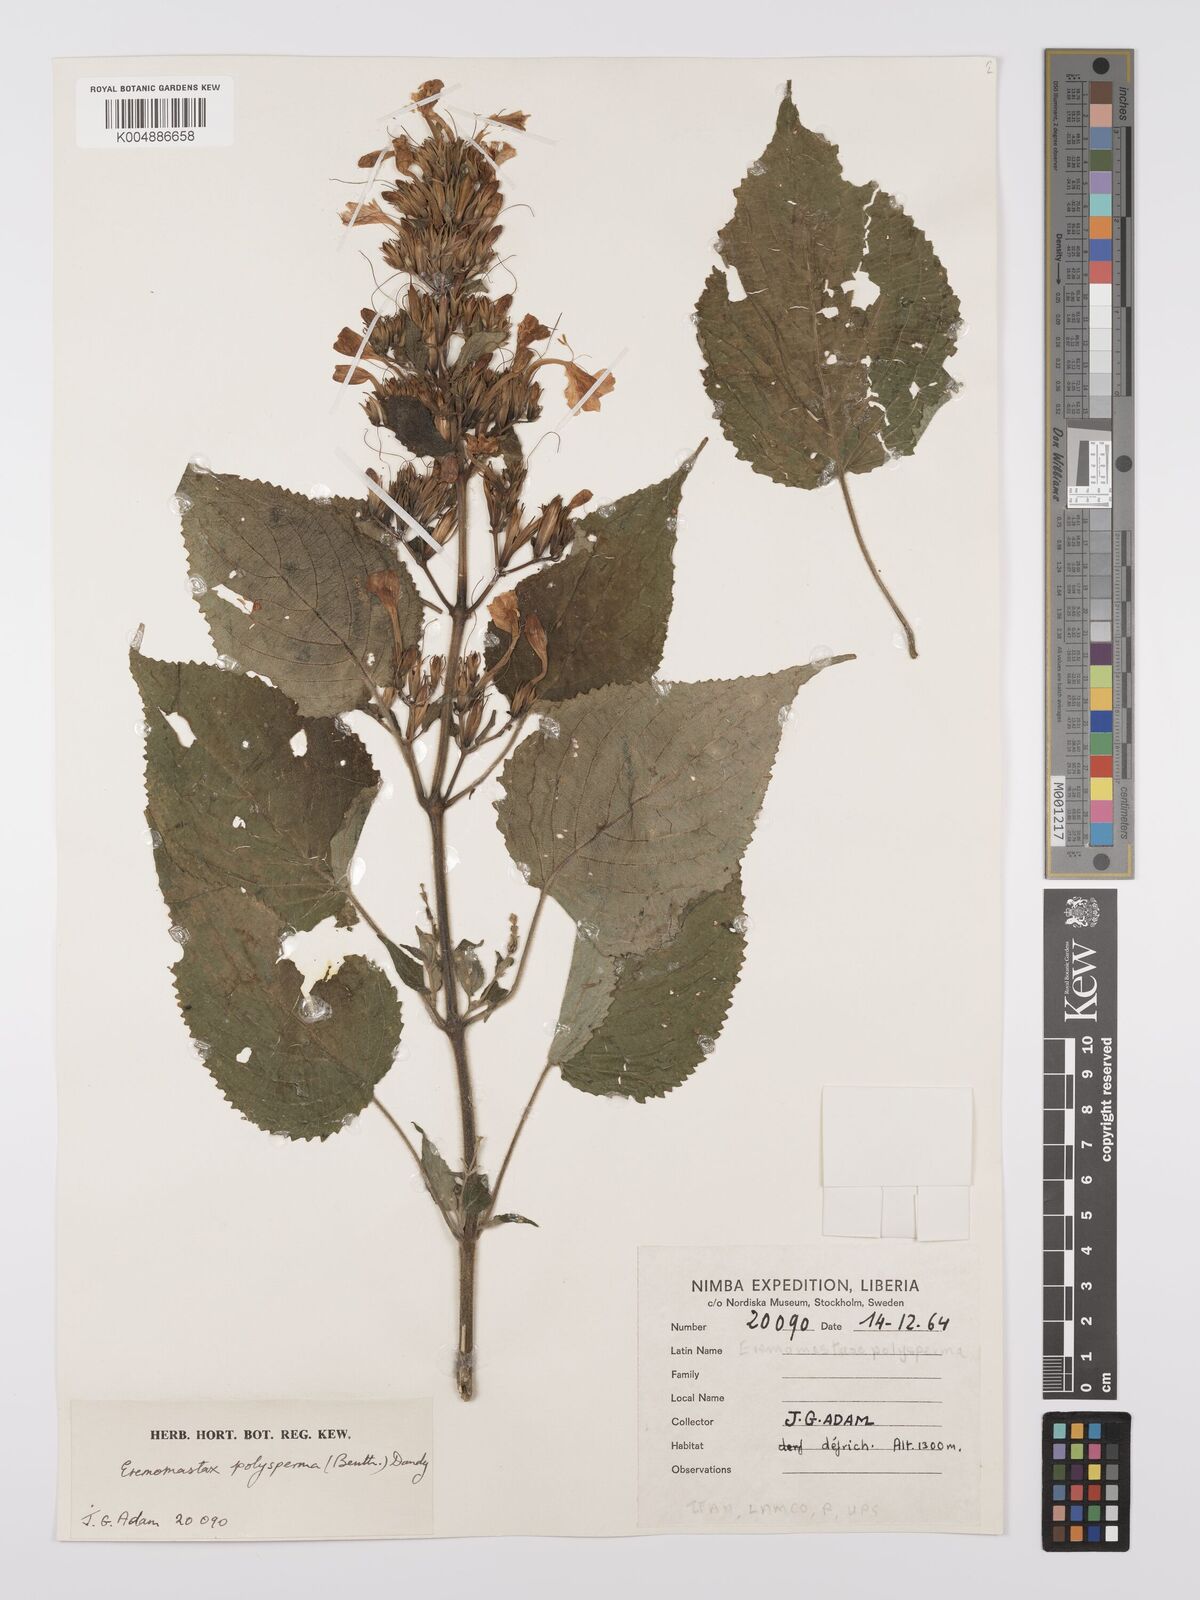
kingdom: Plantae
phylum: Tracheophyta
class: Magnoliopsida
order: Lamiales
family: Acanthaceae
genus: Eremomastax
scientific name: Eremomastax speciosa
